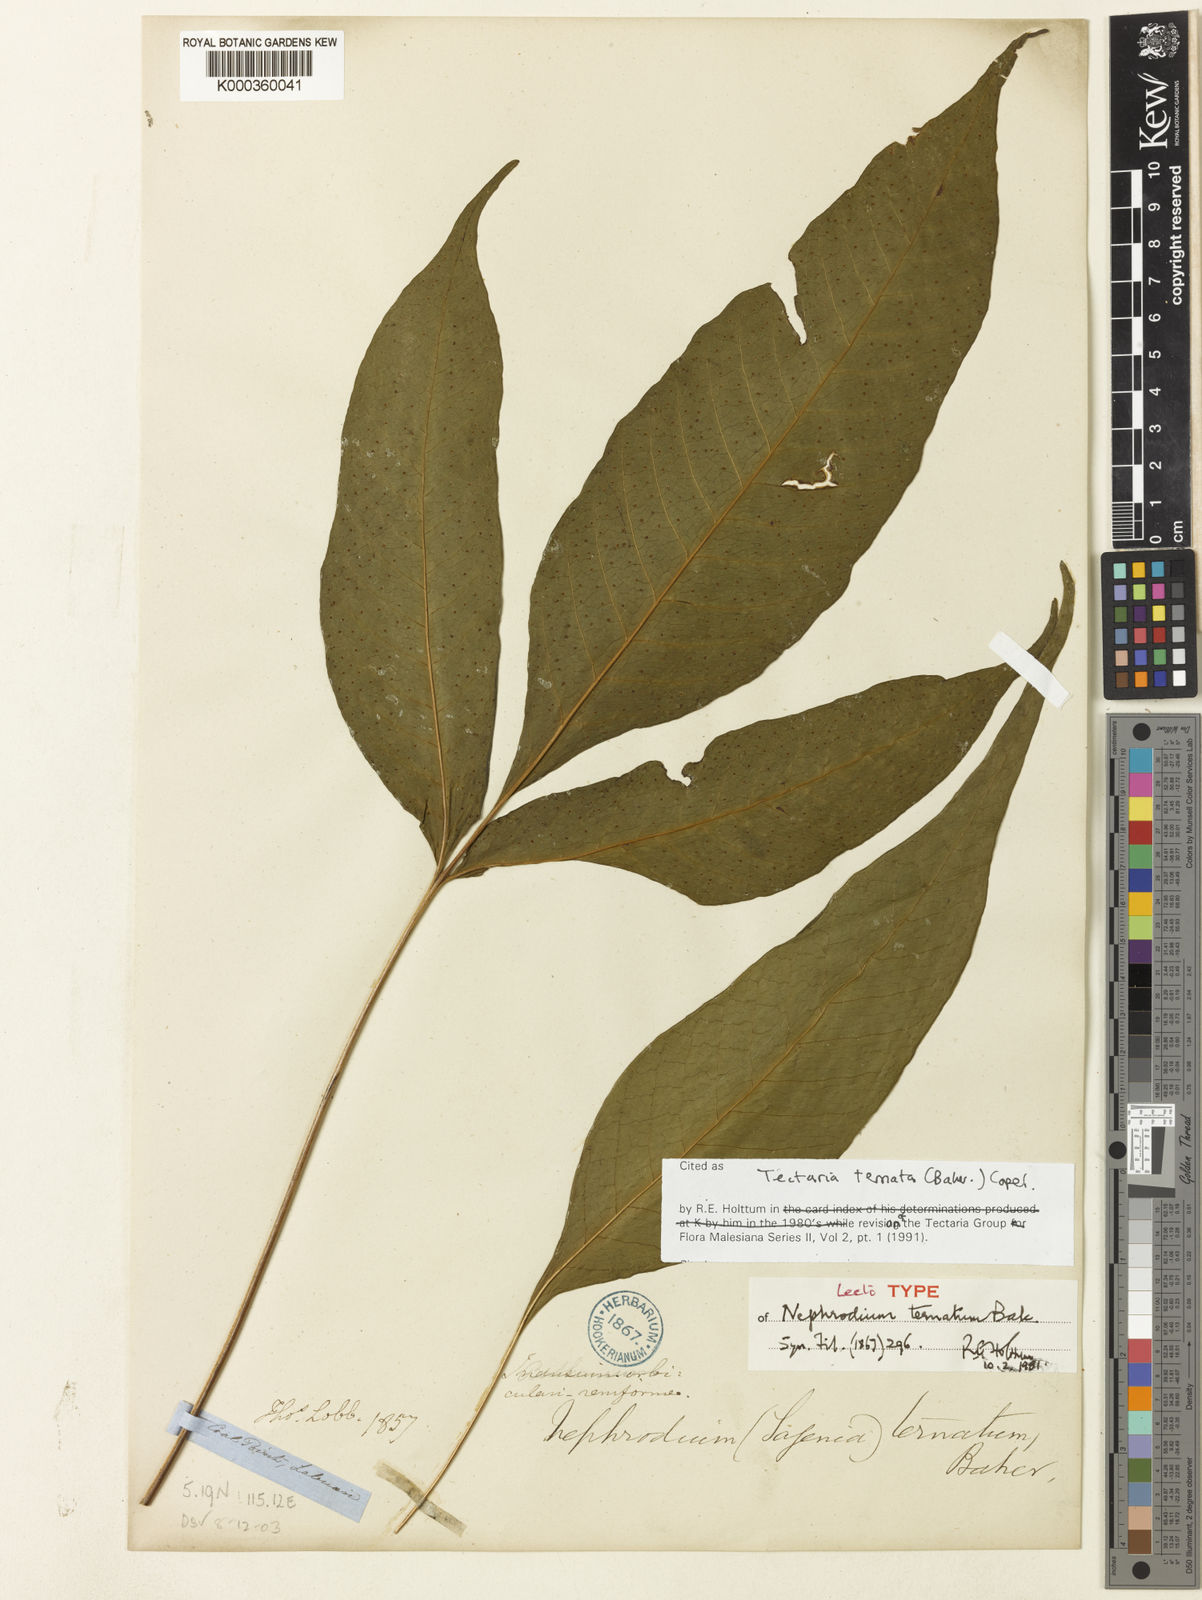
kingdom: Plantae
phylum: Tracheophyta
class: Polypodiopsida
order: Polypodiales
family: Tectariaceae
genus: Polydictyum
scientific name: Polydictyum ternatum
